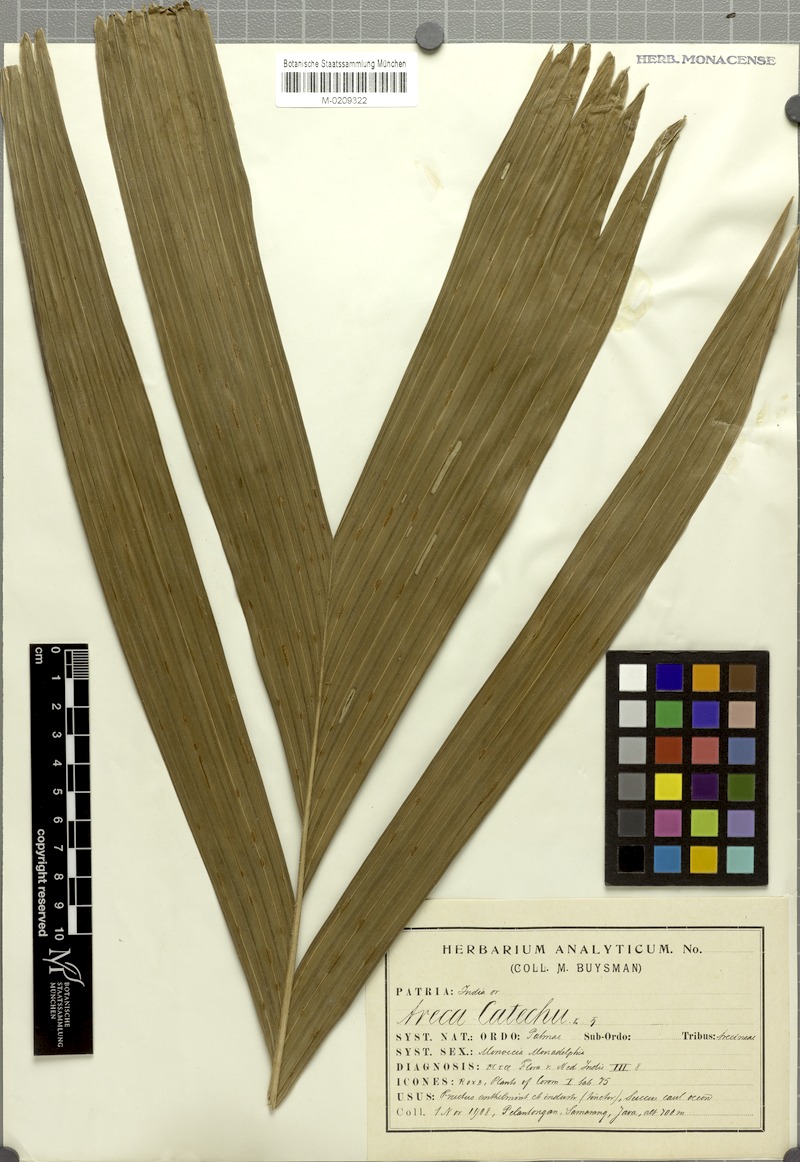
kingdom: Plantae
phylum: Tracheophyta
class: Liliopsida
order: Arecales
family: Arecaceae
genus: Areca
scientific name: Areca catechu
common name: Indian-nut
